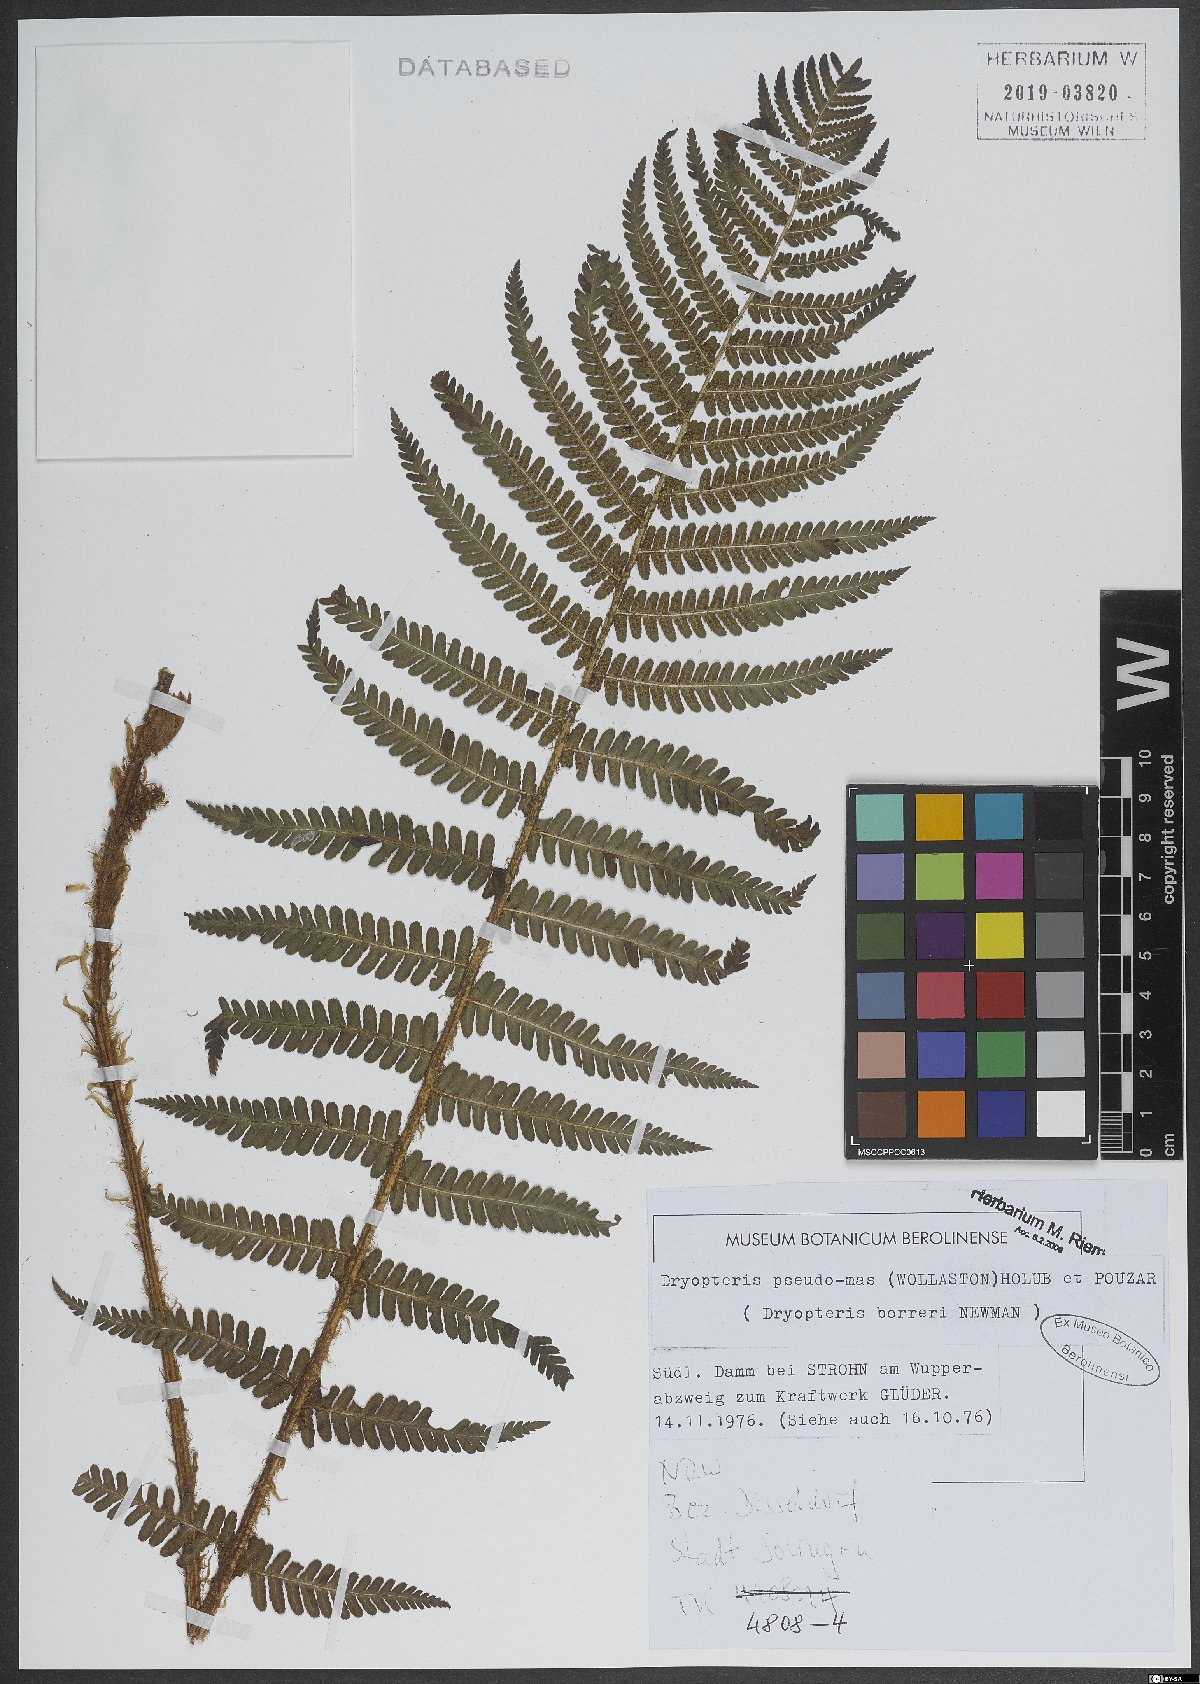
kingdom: Plantae
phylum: Tracheophyta
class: Polypodiopsida
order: Polypodiales
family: Dryopteridaceae
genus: Dryopteris
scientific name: Dryopteris affinis
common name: Scaly male fern
